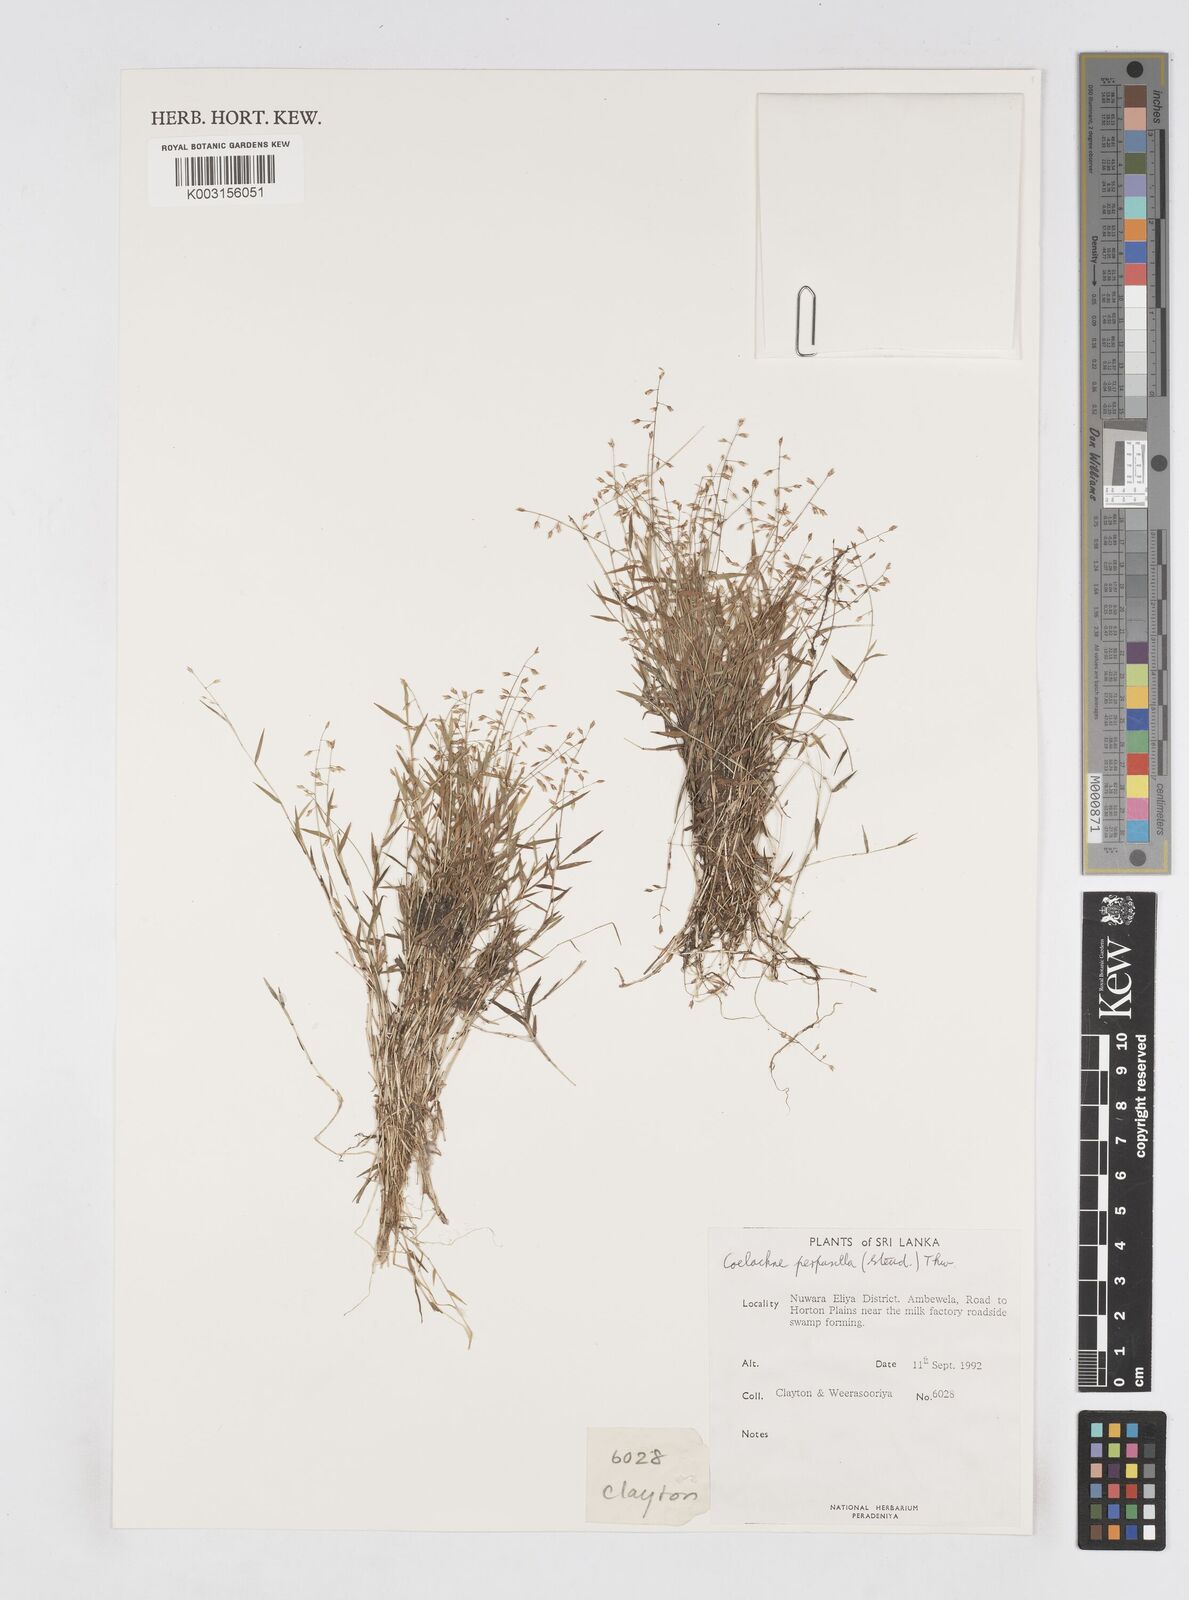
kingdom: Plantae
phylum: Tracheophyta
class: Liliopsida
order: Poales
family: Poaceae
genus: Coelachne
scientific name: Coelachne perpusilla
